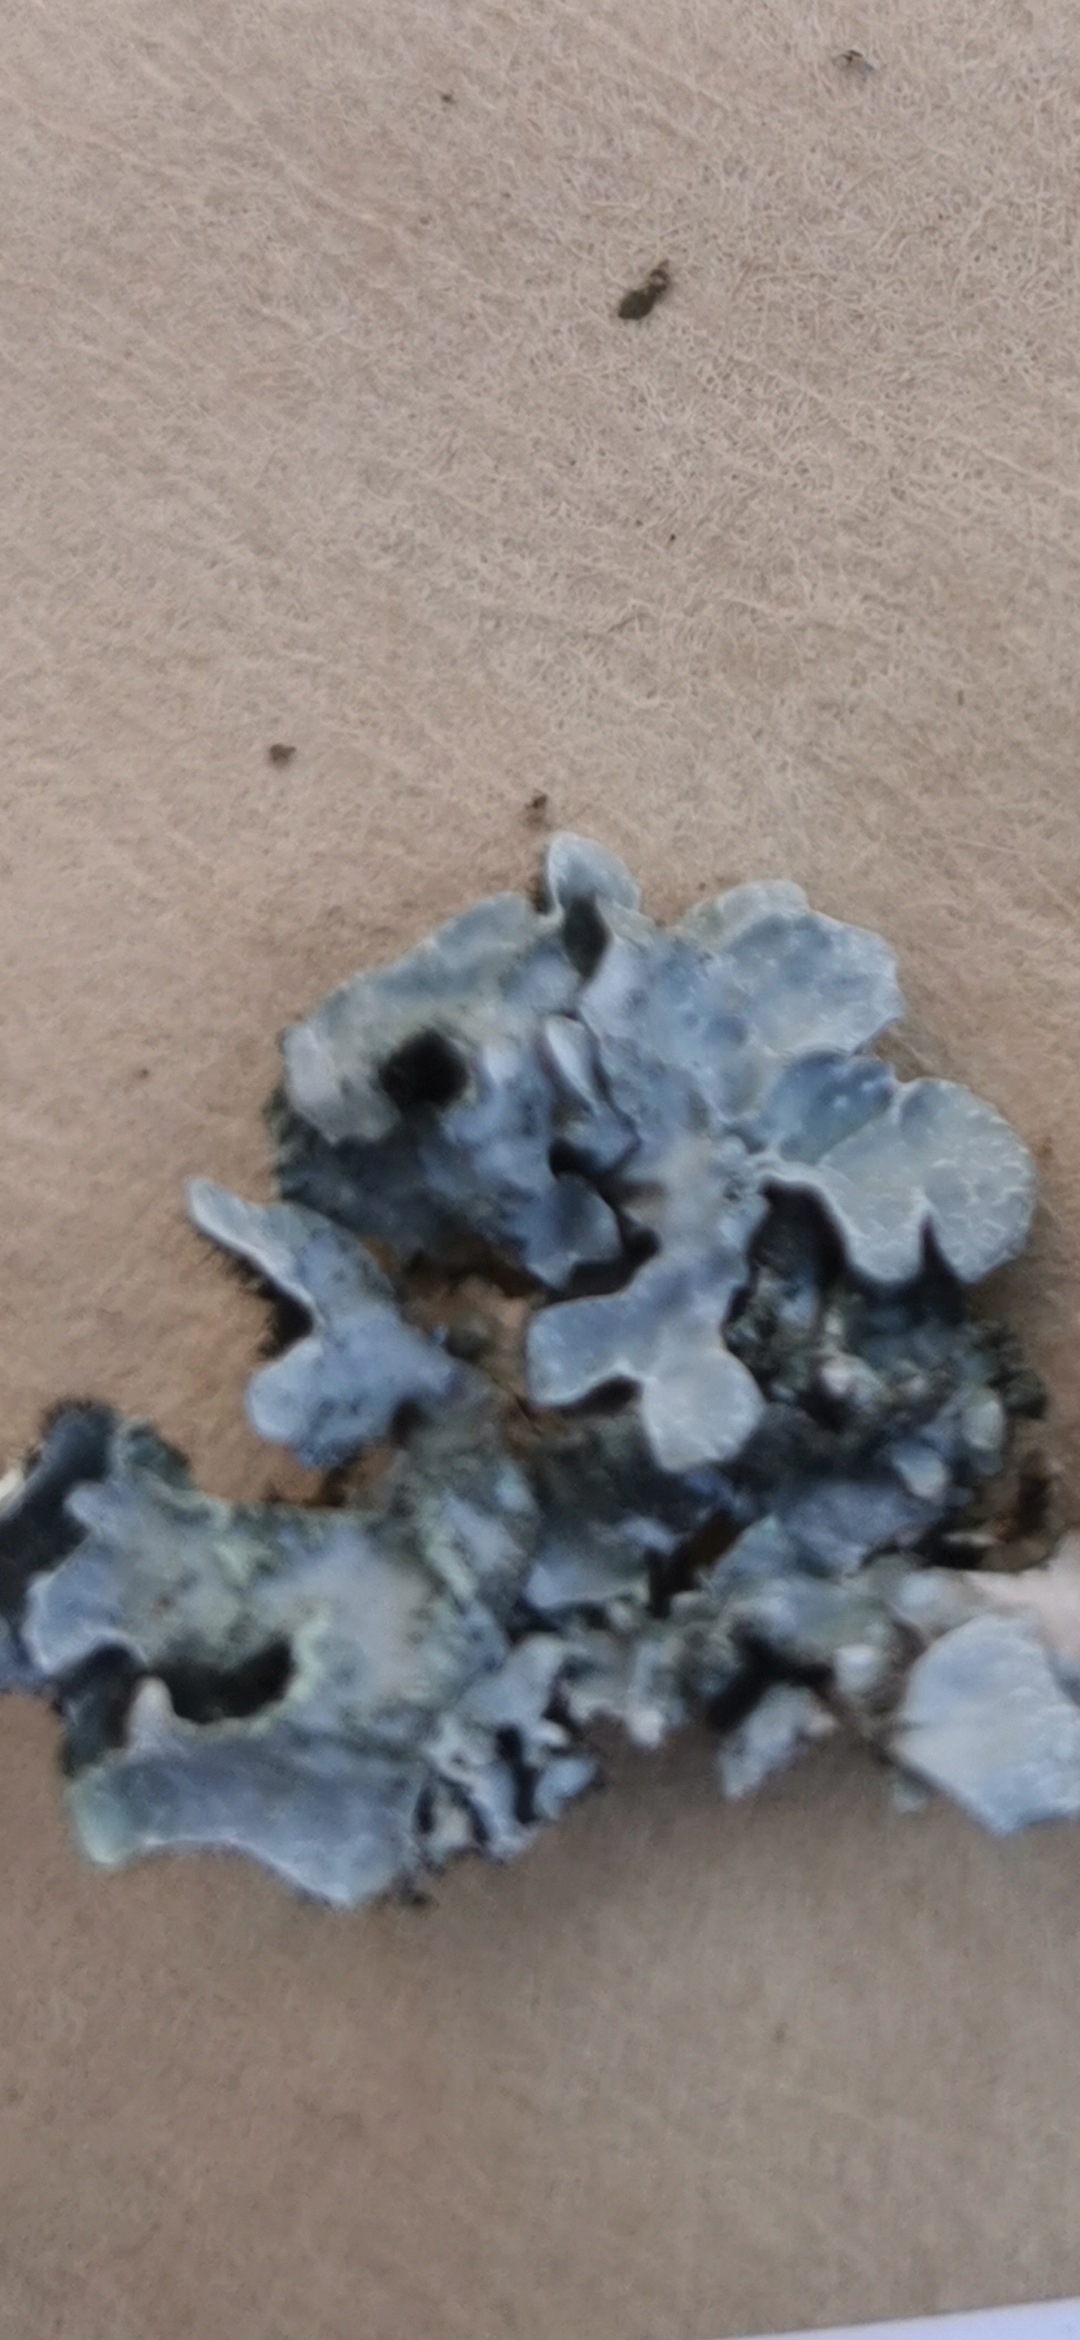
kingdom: Fungi
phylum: Ascomycota
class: Lecanoromycetes
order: Lecanorales
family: Parmeliaceae
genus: Parmelia
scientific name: Parmelia sulcata
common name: Rynket skållav
